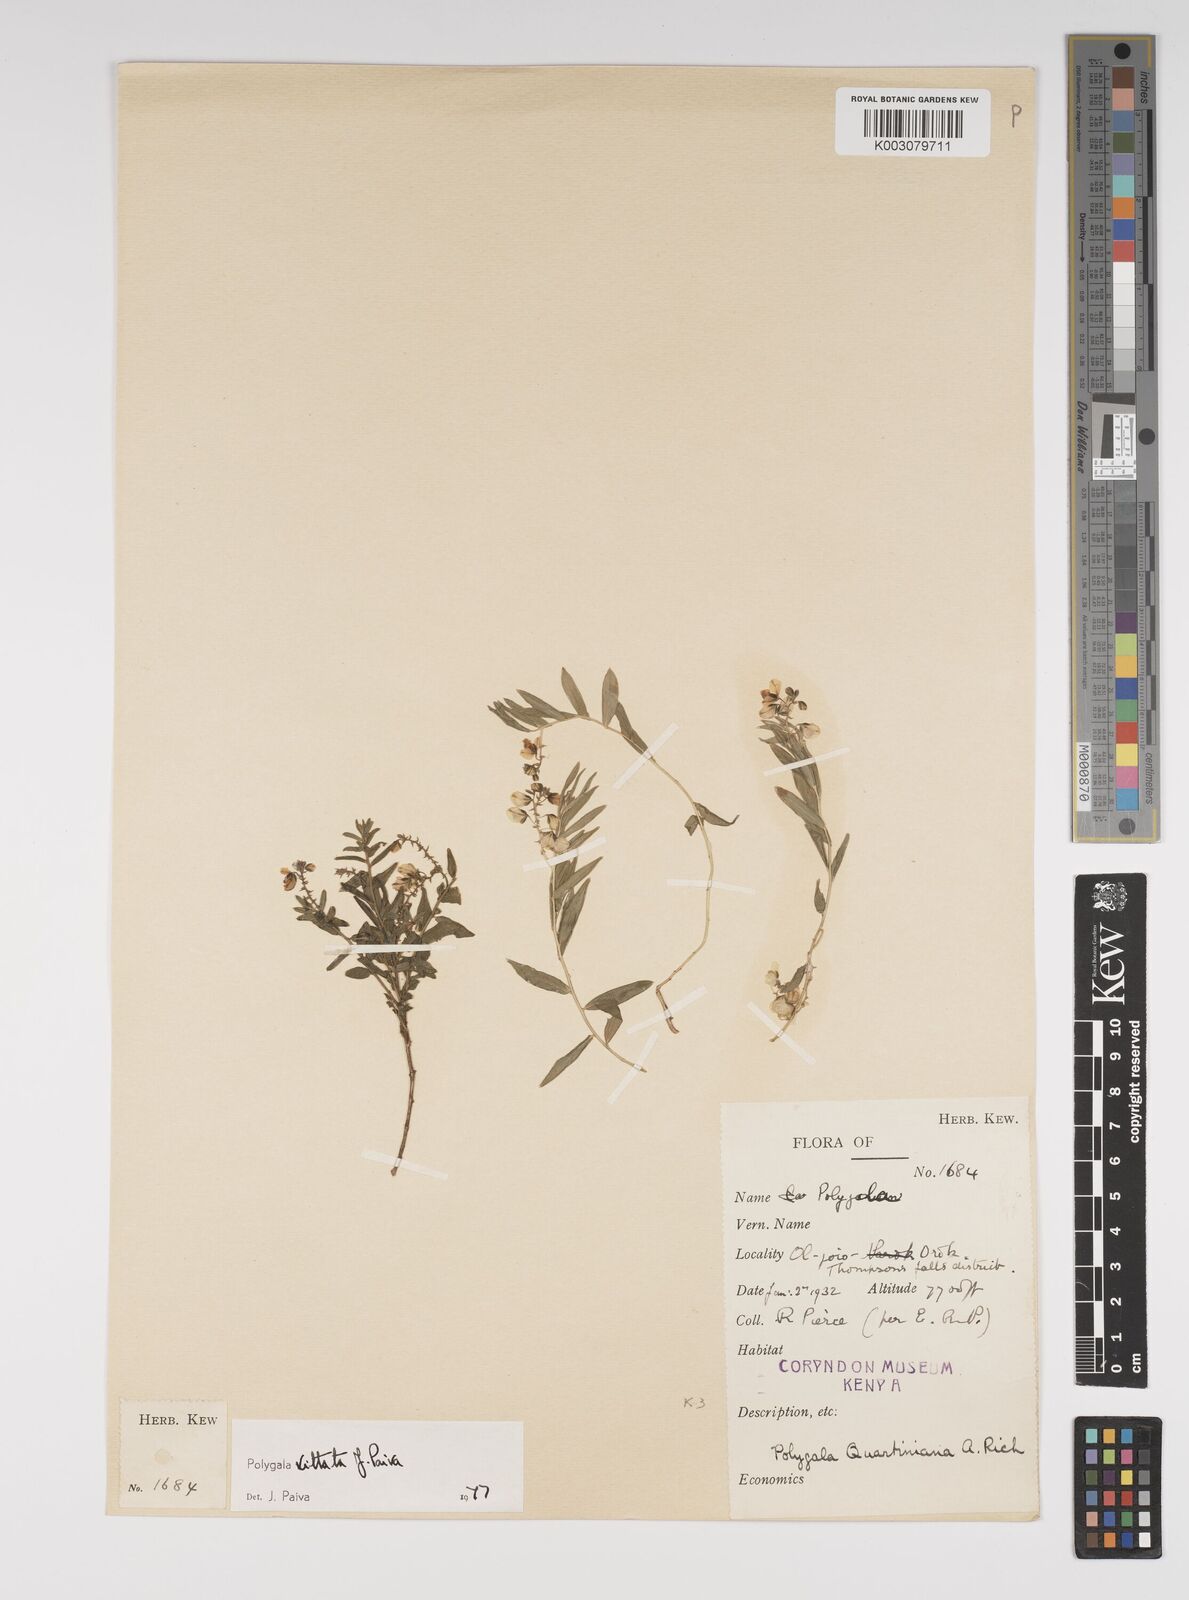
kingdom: Plantae
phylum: Tracheophyta
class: Magnoliopsida
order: Fabales
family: Polygalaceae
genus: Polygala
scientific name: Polygala vittata
